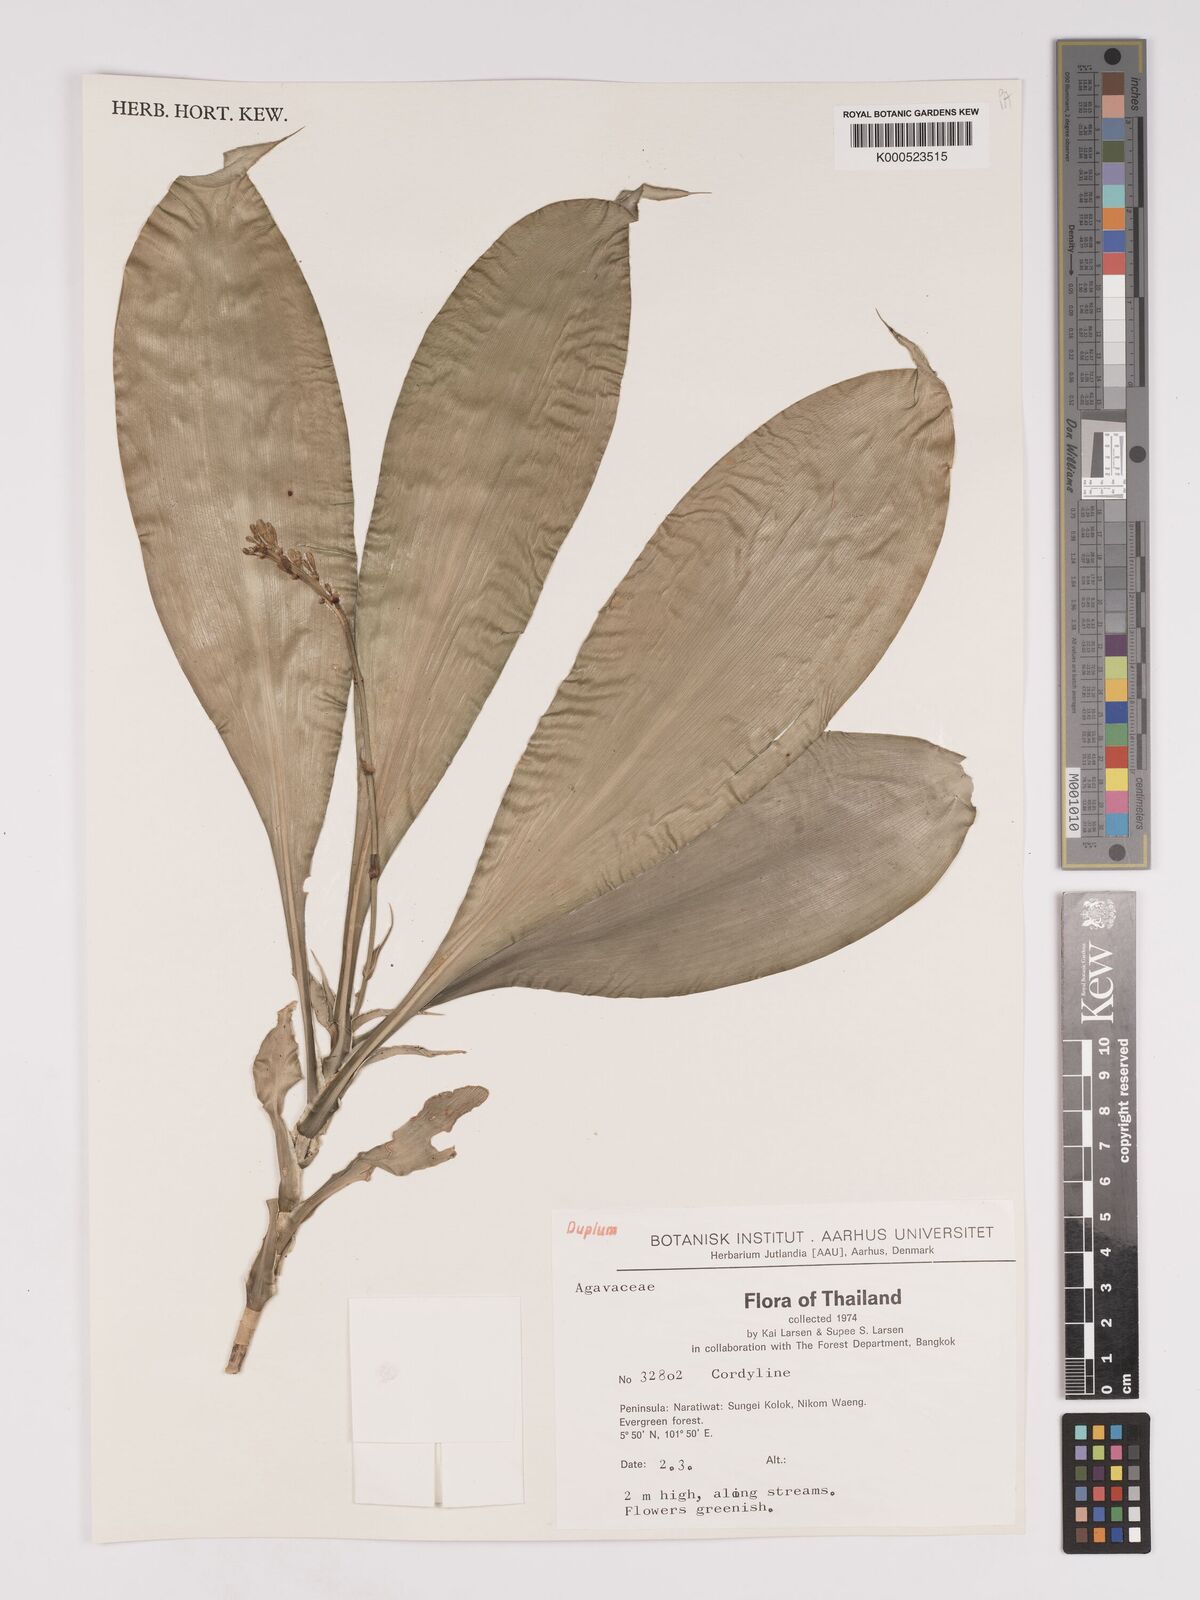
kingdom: Plantae
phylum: Tracheophyta
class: Liliopsida
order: Asparagales
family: Asparagaceae
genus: Dracaena
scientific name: Dracaena
